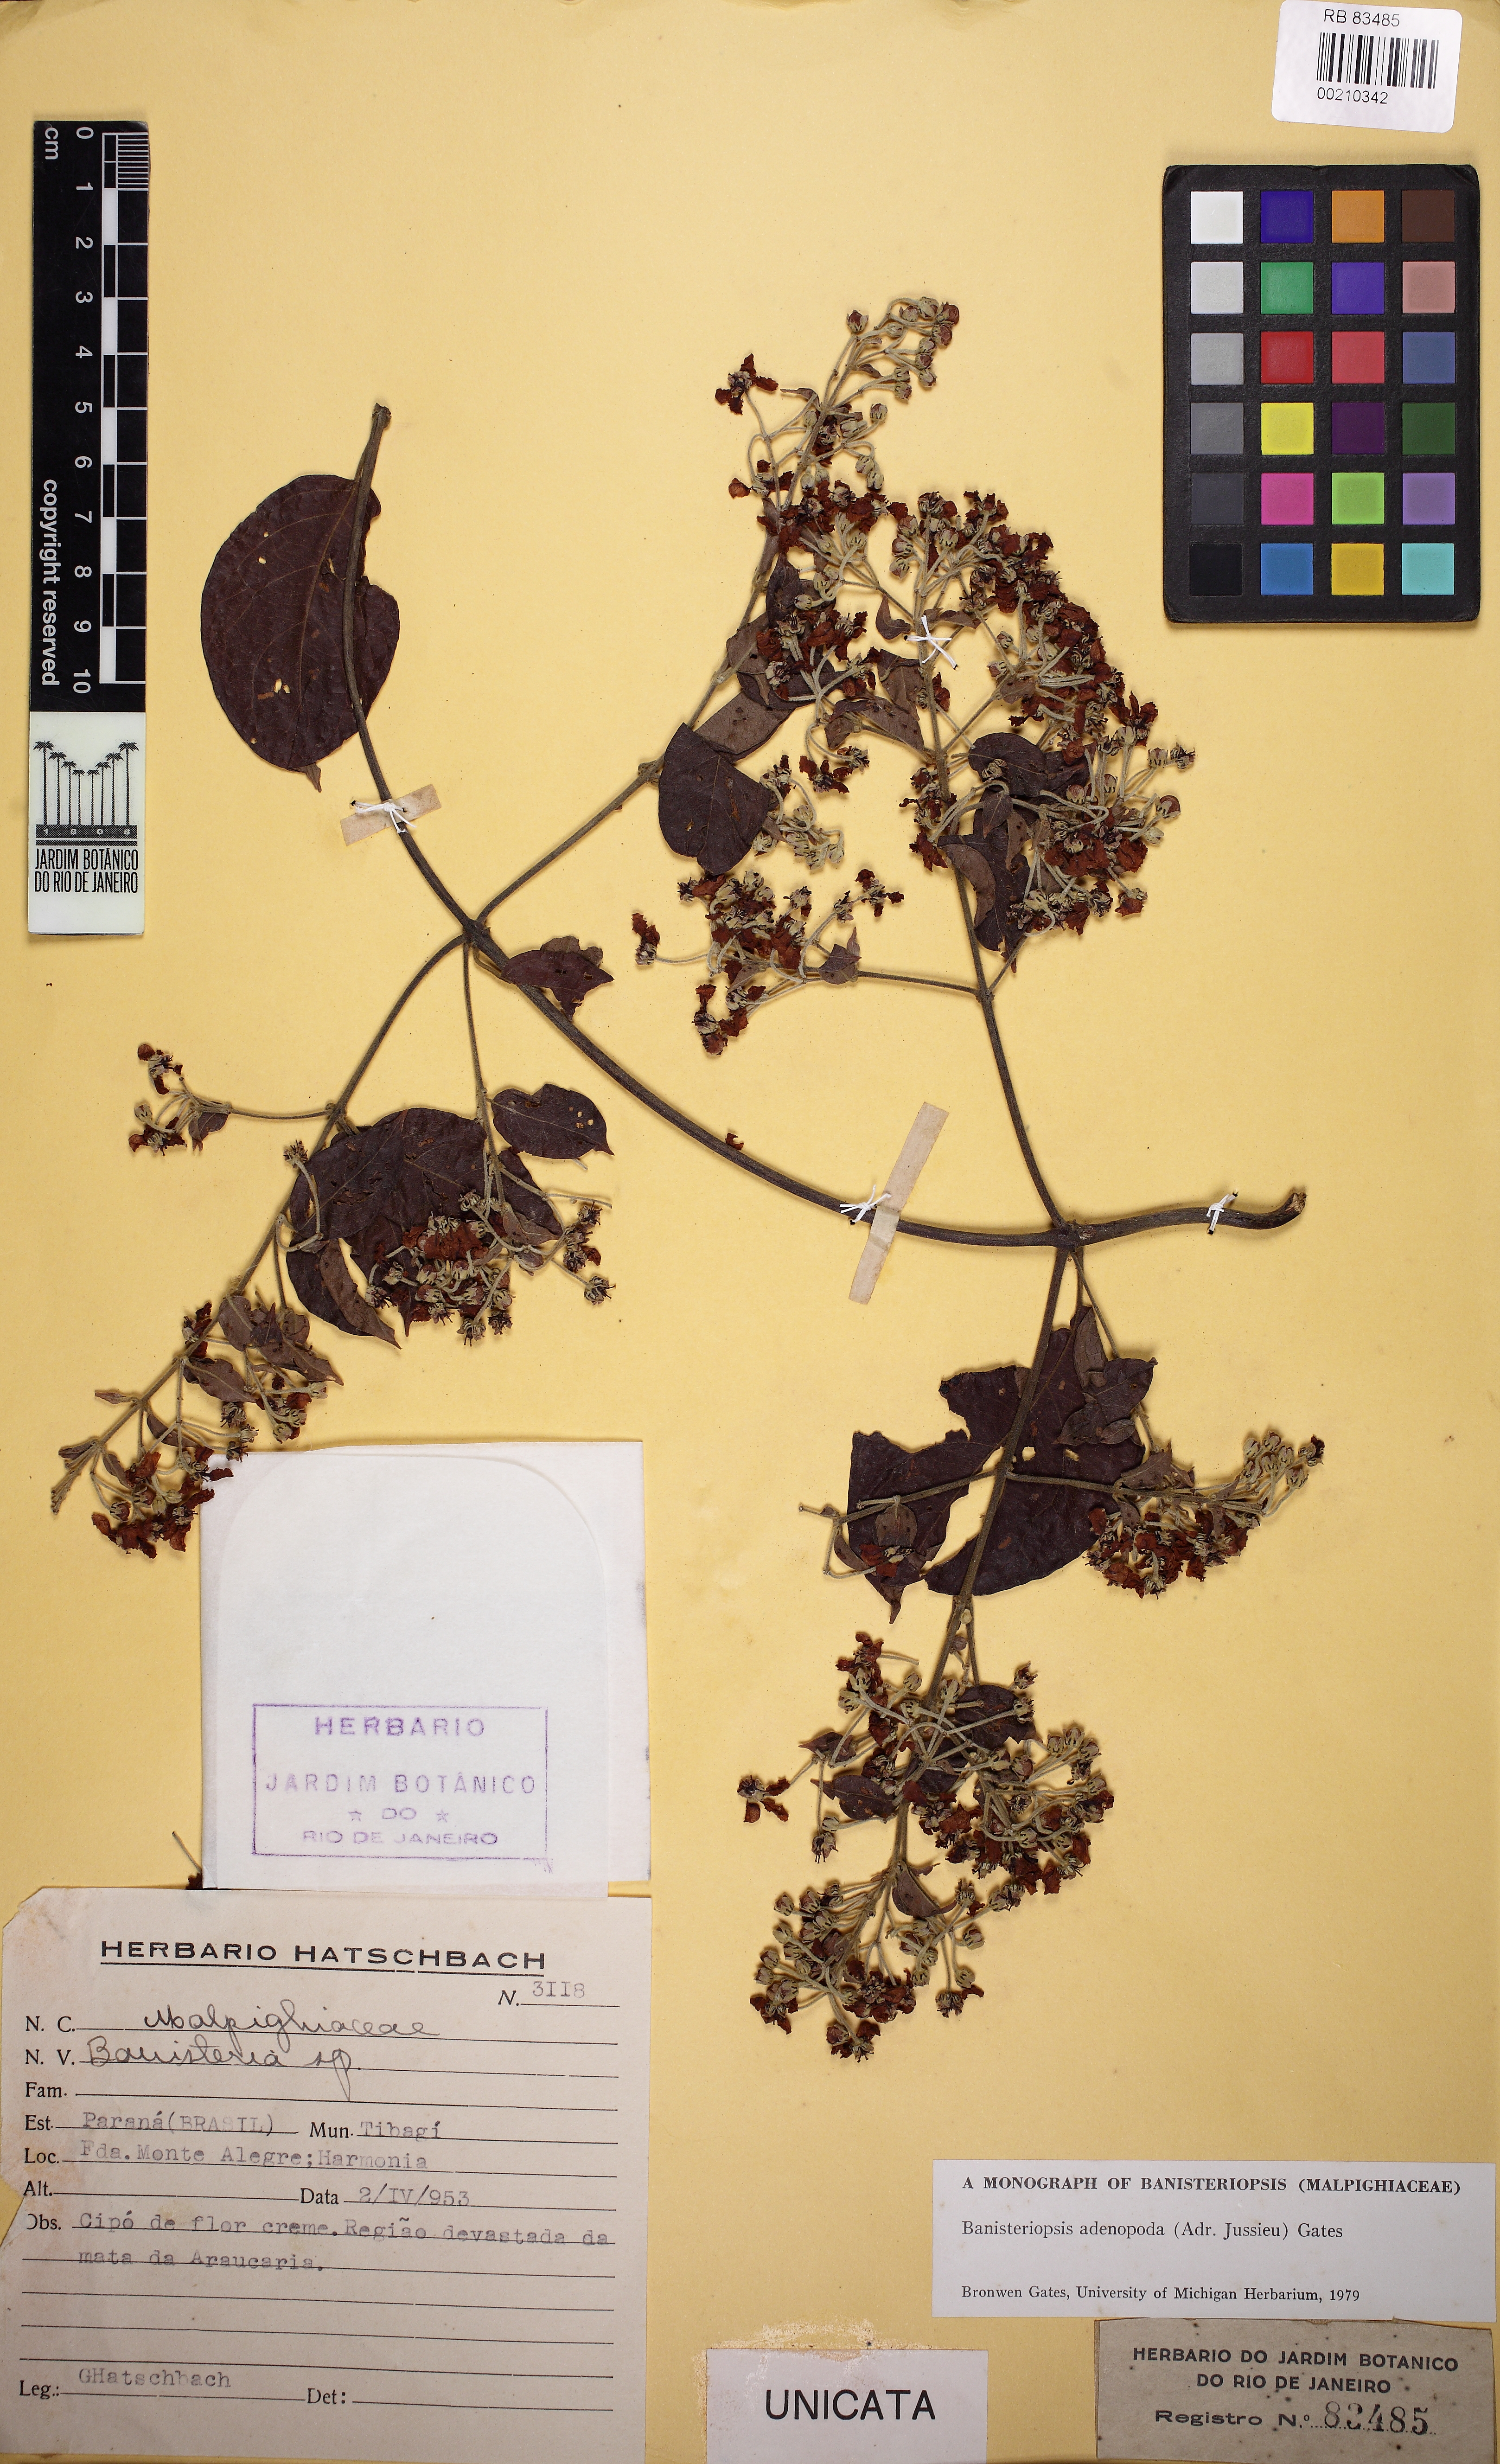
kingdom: Plantae
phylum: Tracheophyta
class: Magnoliopsida
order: Malpighiales
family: Malpighiaceae
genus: Banisteriopsis
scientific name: Banisteriopsis adenopoda
